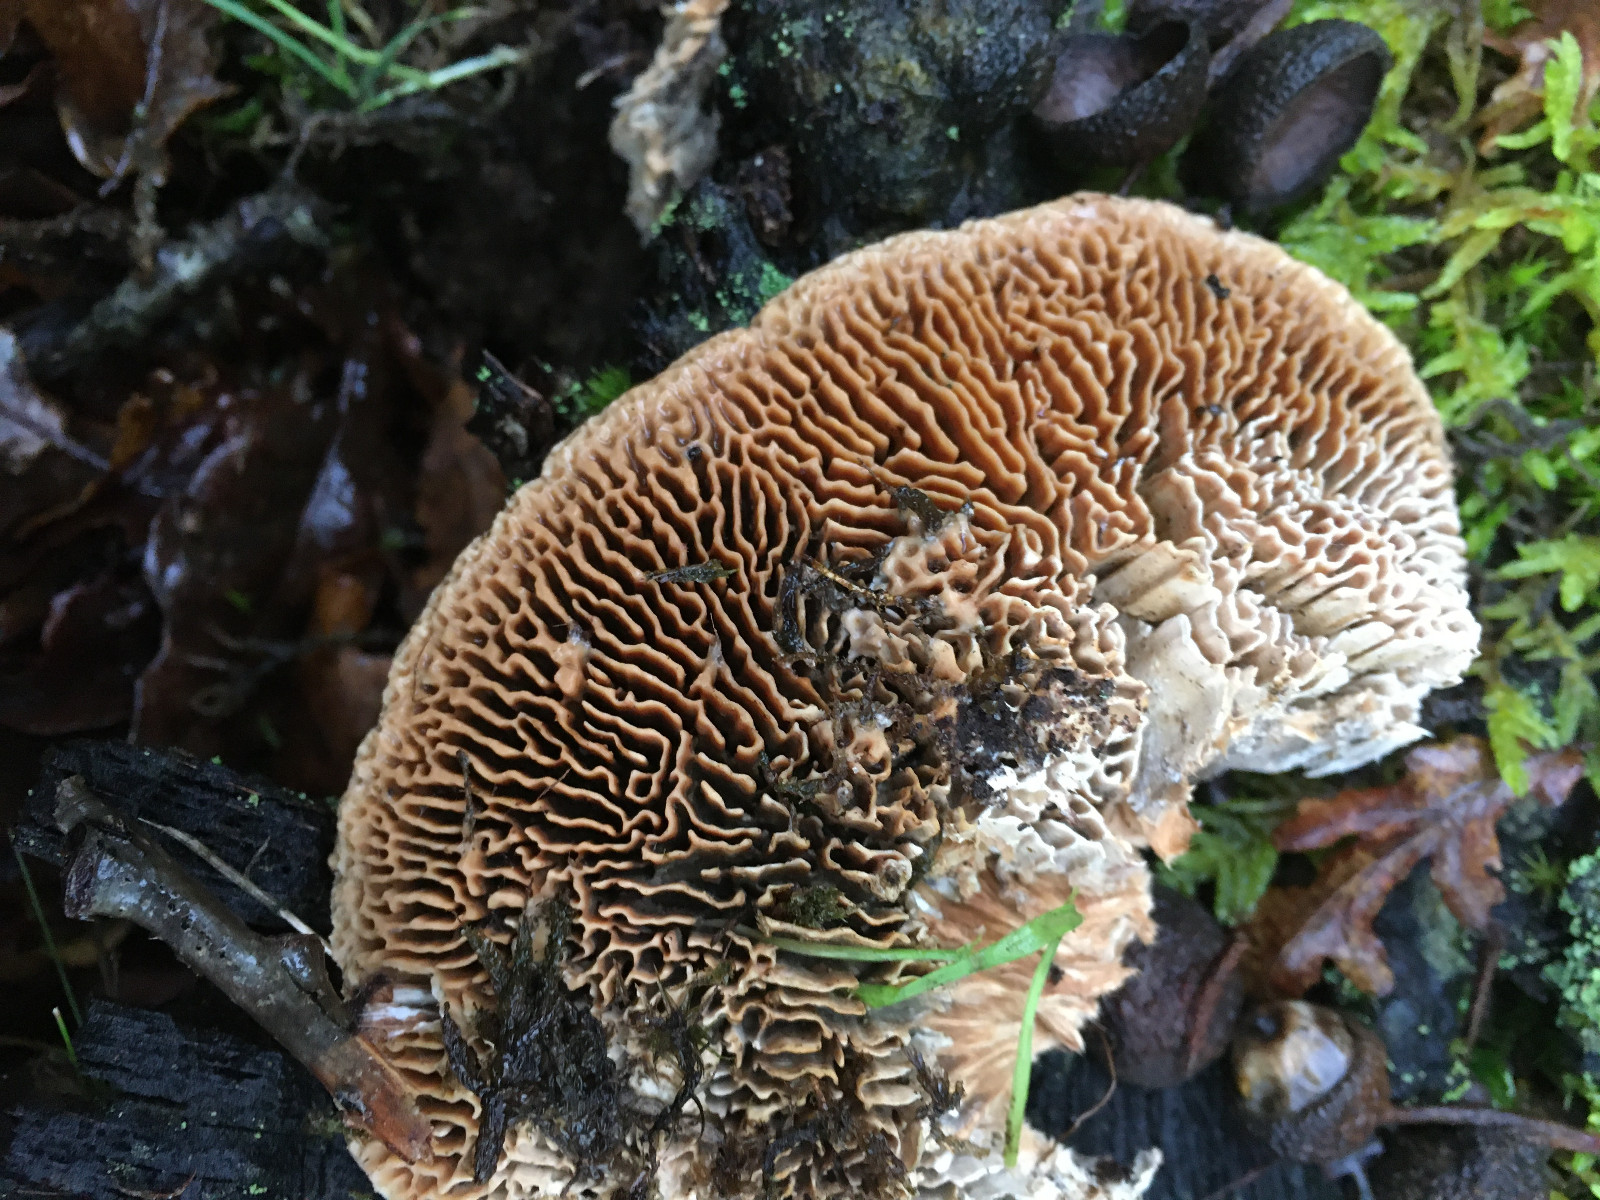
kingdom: Fungi
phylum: Basidiomycota
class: Agaricomycetes
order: Polyporales
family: Fomitopsidaceae
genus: Daedalea
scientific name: Daedalea quercina
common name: ege-labyrintsvamp
